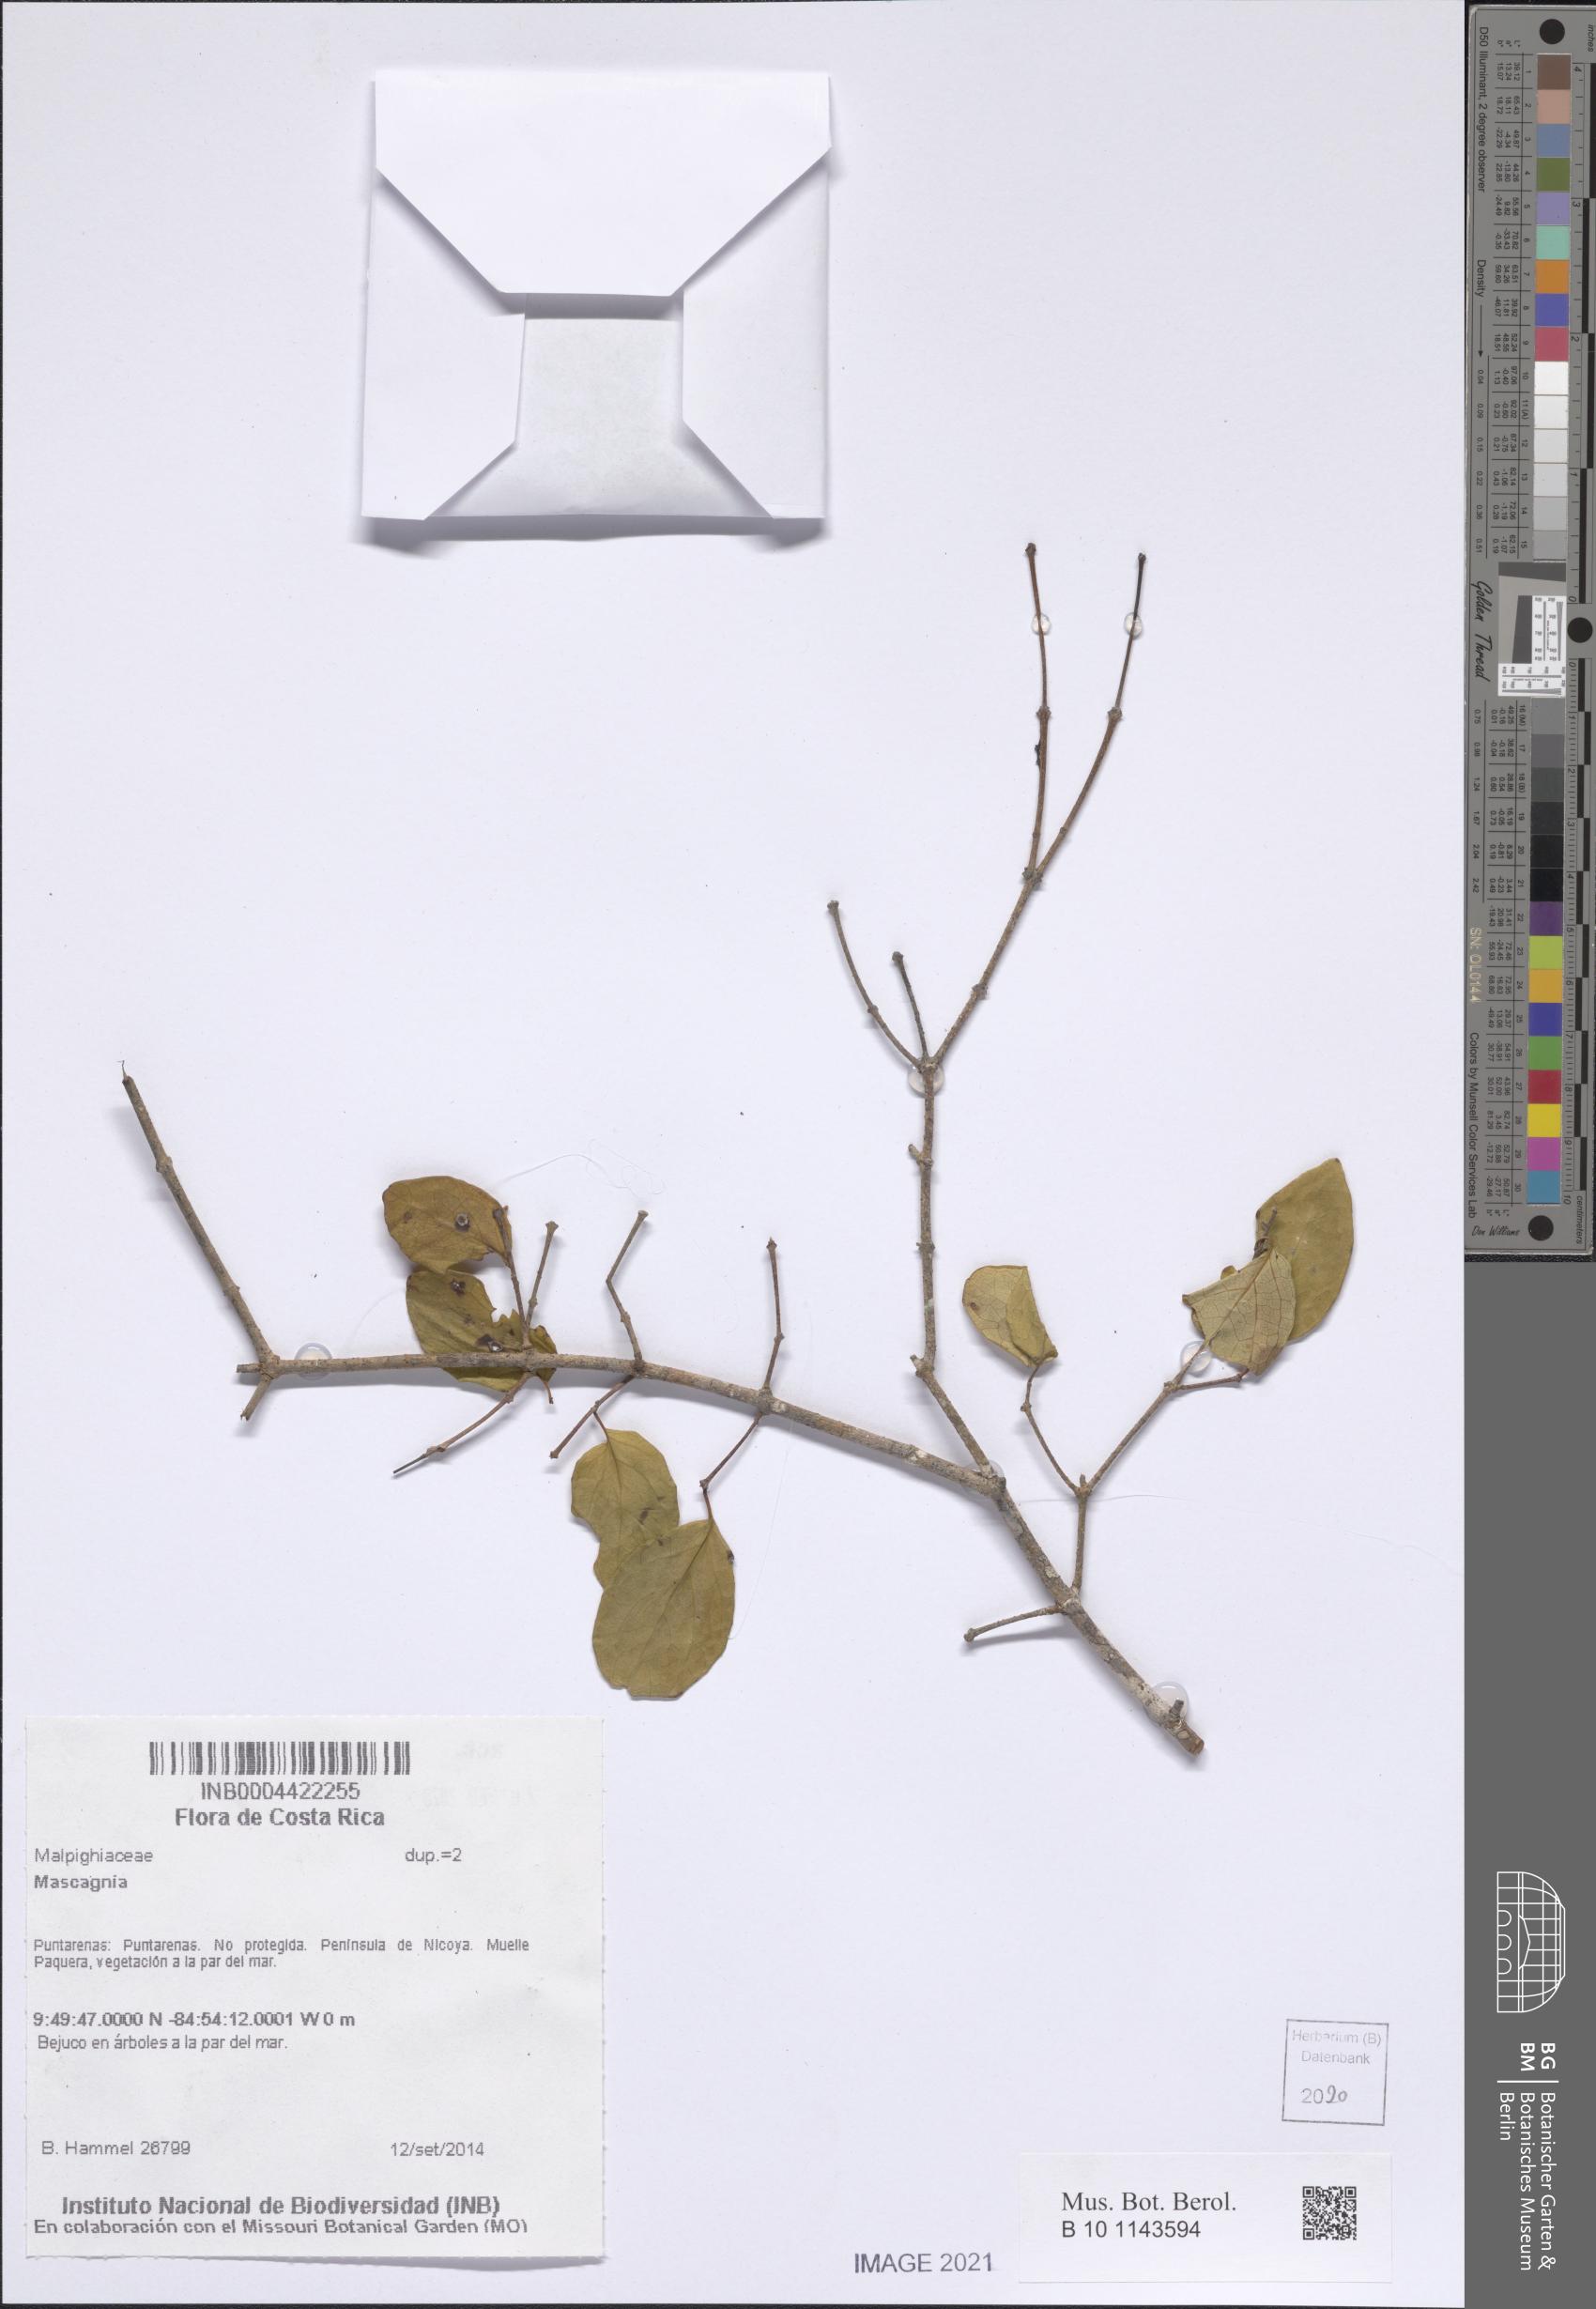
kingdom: Plantae
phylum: Tracheophyta
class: Magnoliopsida
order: Malpighiales
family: Malpighiaceae
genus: Mascagnia
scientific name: Mascagnia
